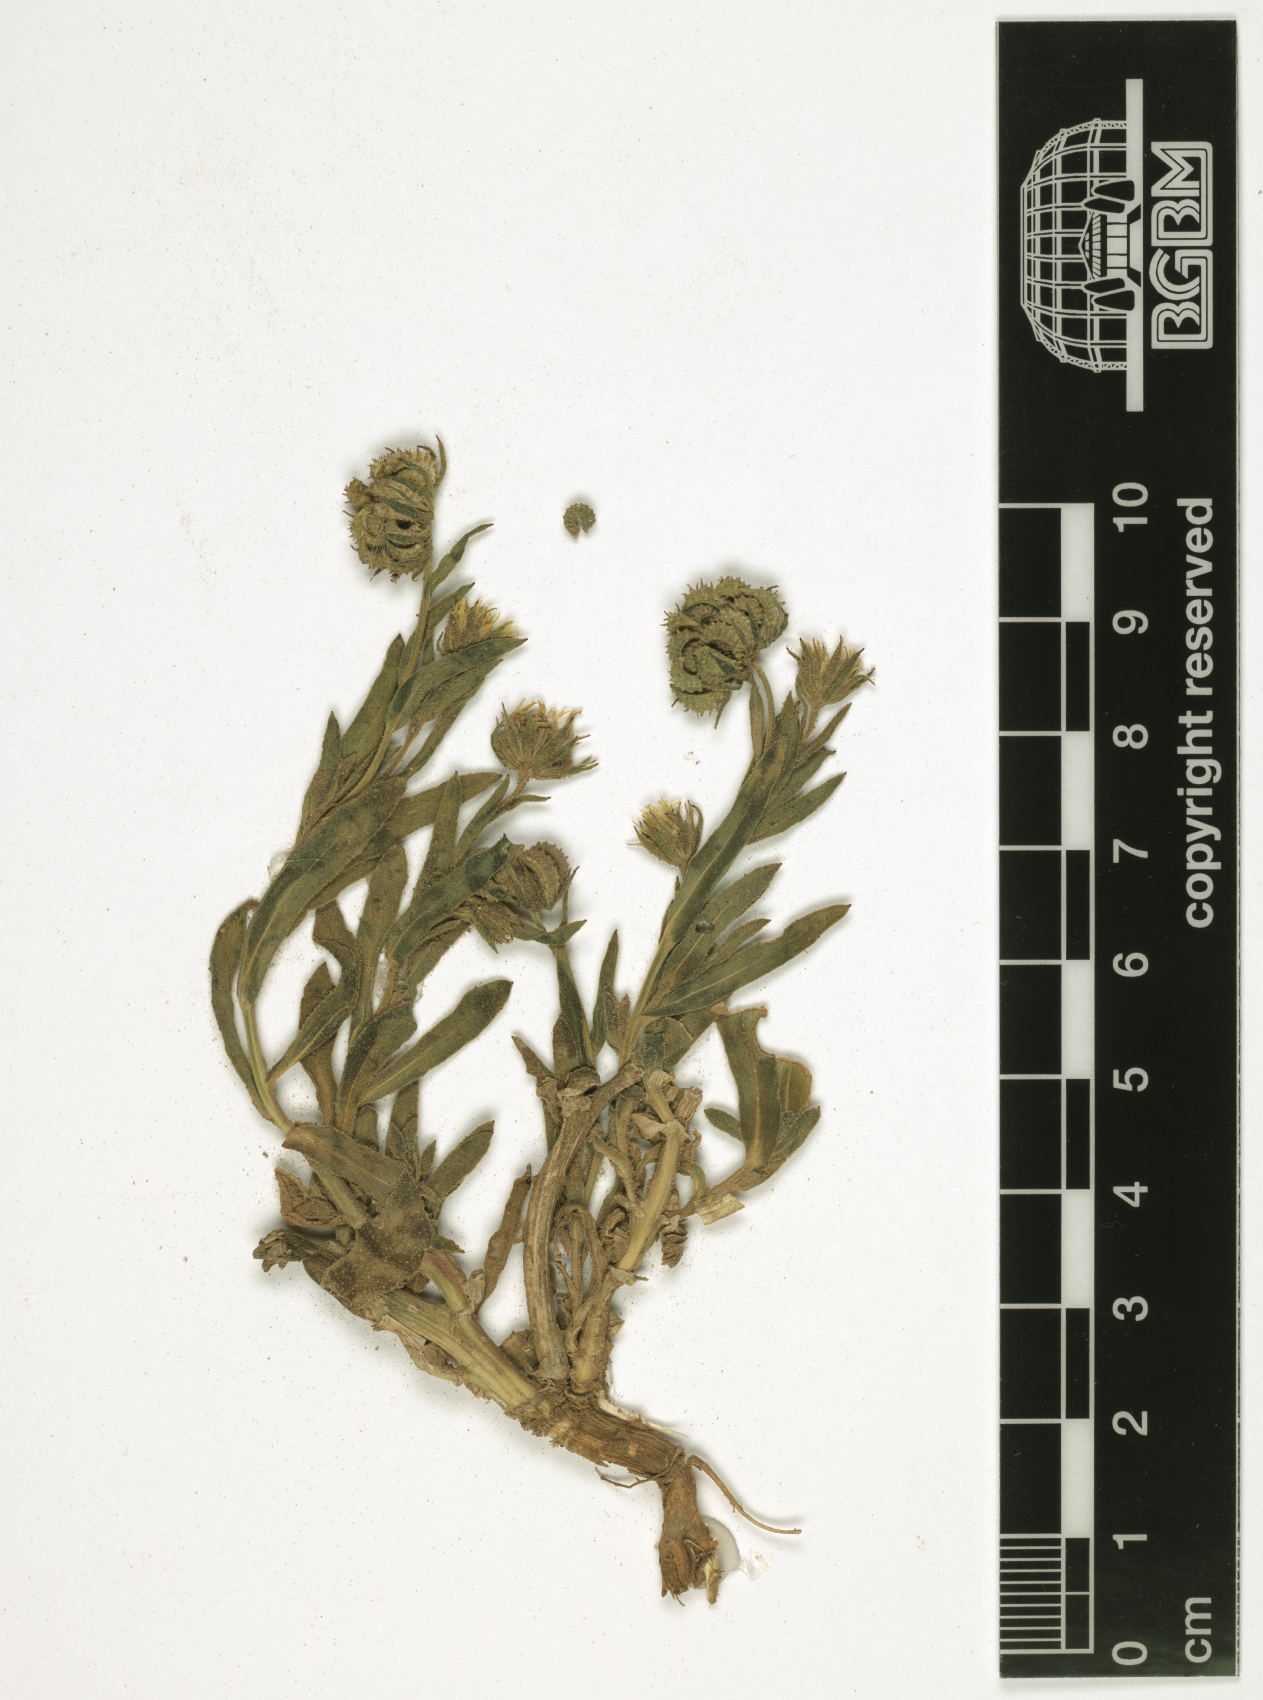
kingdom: Plantae
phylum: Tracheophyta
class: Magnoliopsida
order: Asterales
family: Asteraceae
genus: Calendula
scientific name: Calendula arvensis
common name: Field marigold
